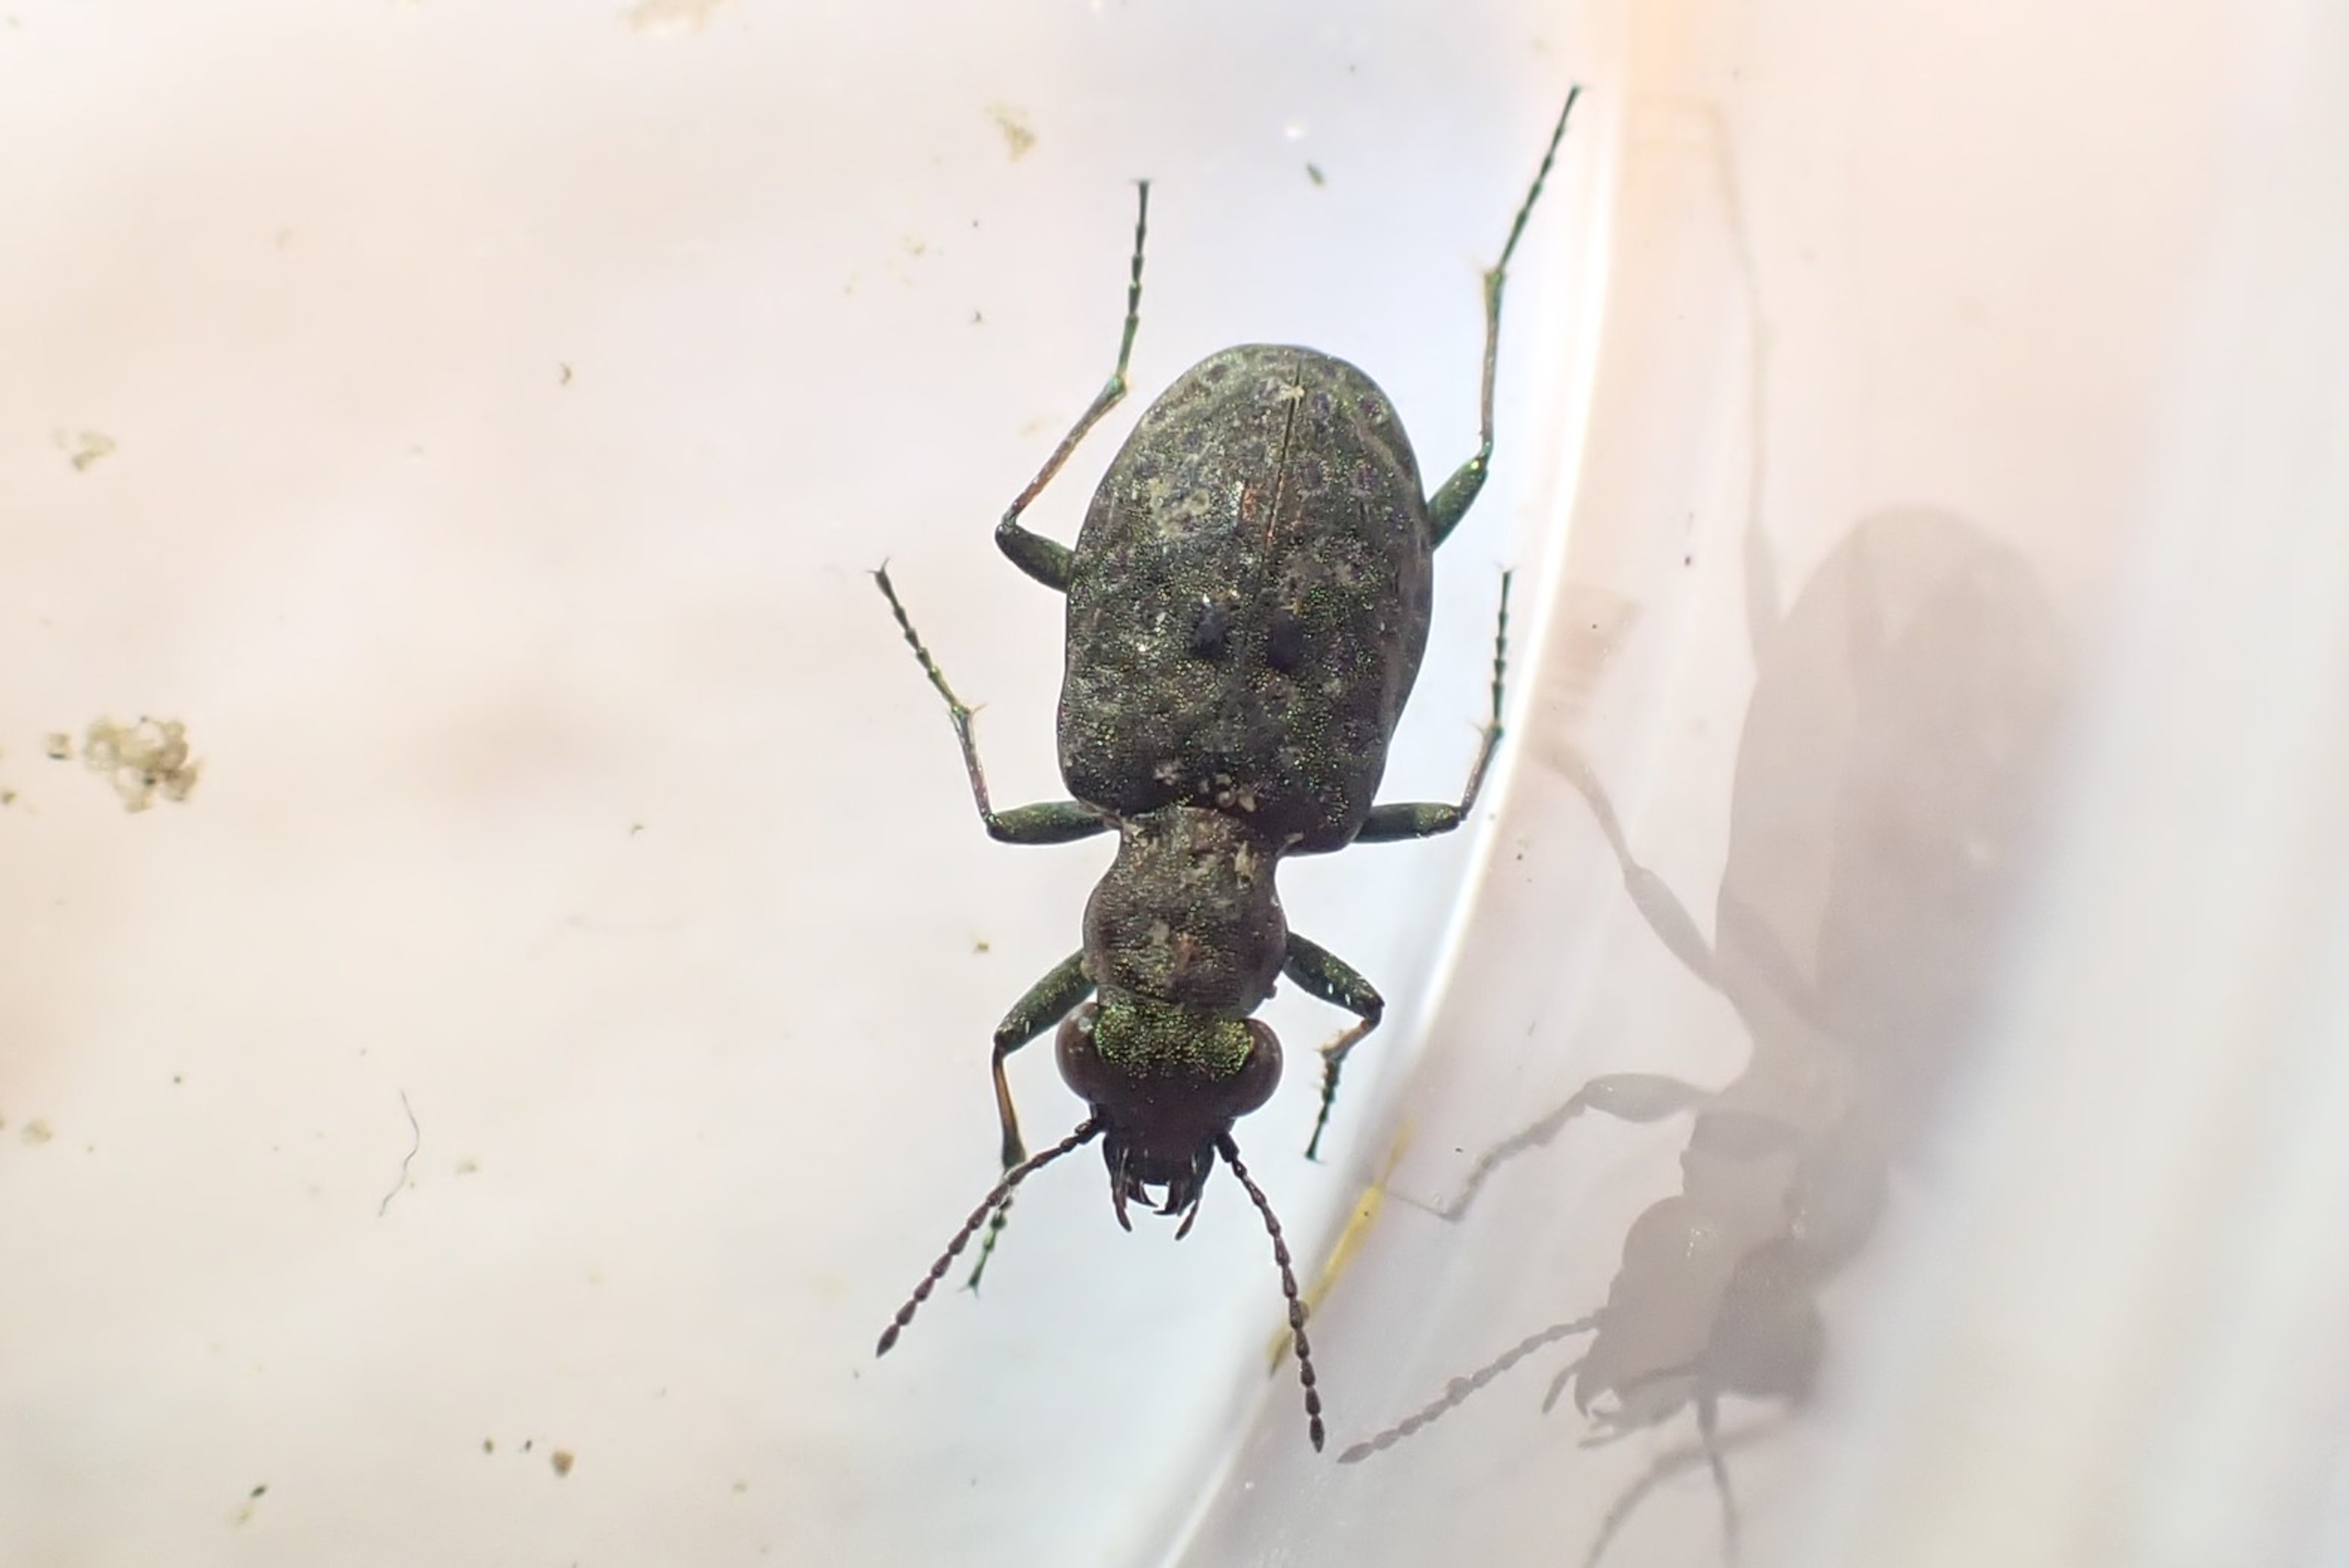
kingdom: Animalia
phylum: Arthropoda
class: Insecta
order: Coleoptera
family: Carabidae
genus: Elaphrus
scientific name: Elaphrus riparius
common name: Grøn øjenløber
